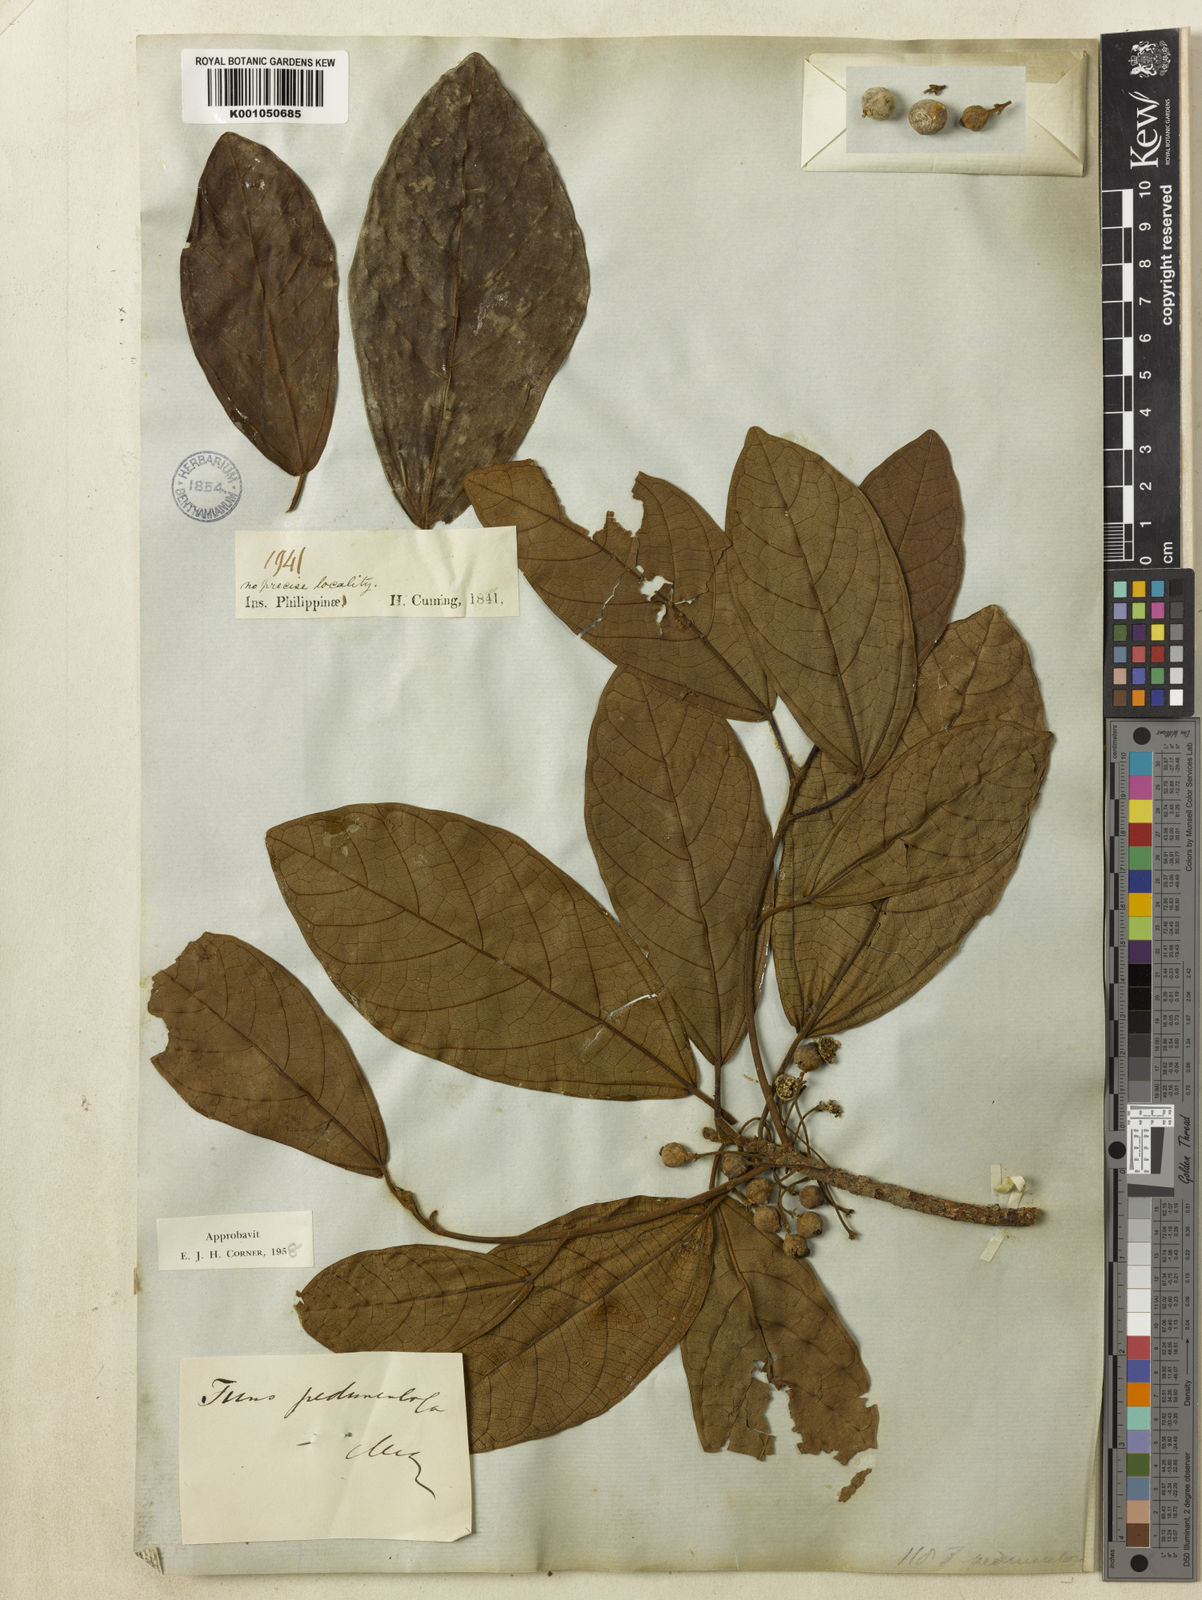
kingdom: Plantae
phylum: Tracheophyta
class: Magnoliopsida
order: Rosales
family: Moraceae
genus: Ficus
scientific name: Ficus pedunculosa
